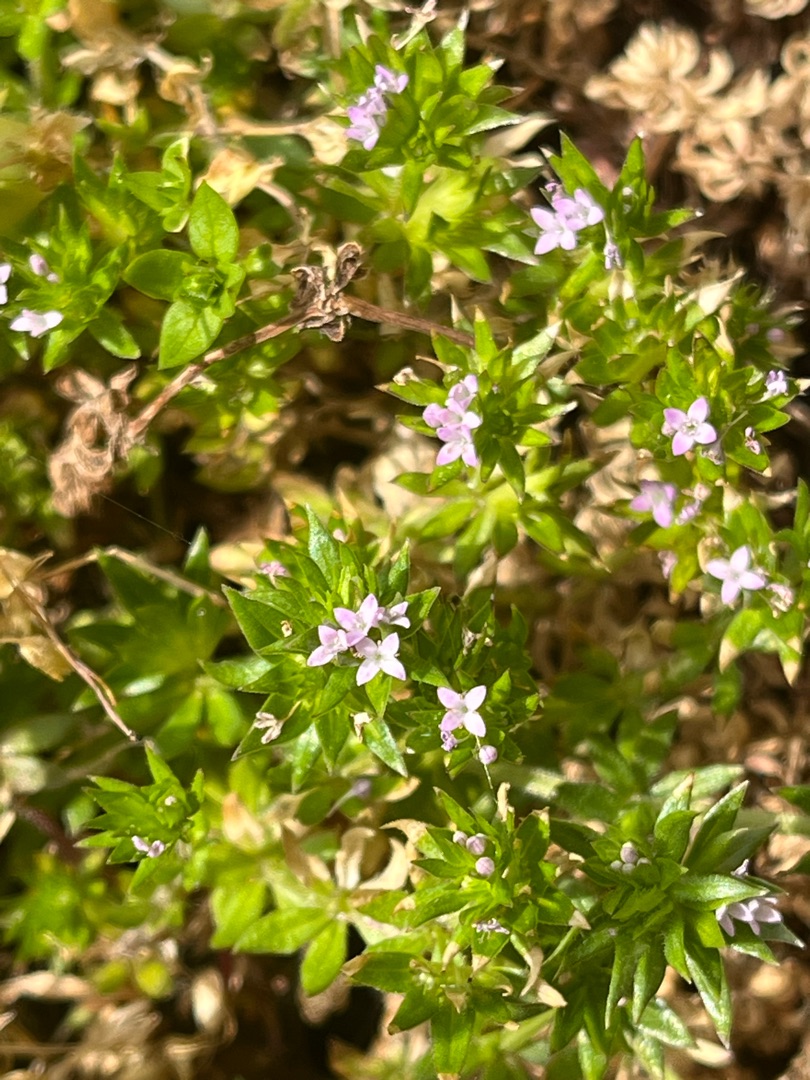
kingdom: Plantae
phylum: Tracheophyta
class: Magnoliopsida
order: Gentianales
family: Rubiaceae
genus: Sherardia
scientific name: Sherardia arvensis
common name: Blåstjerne
